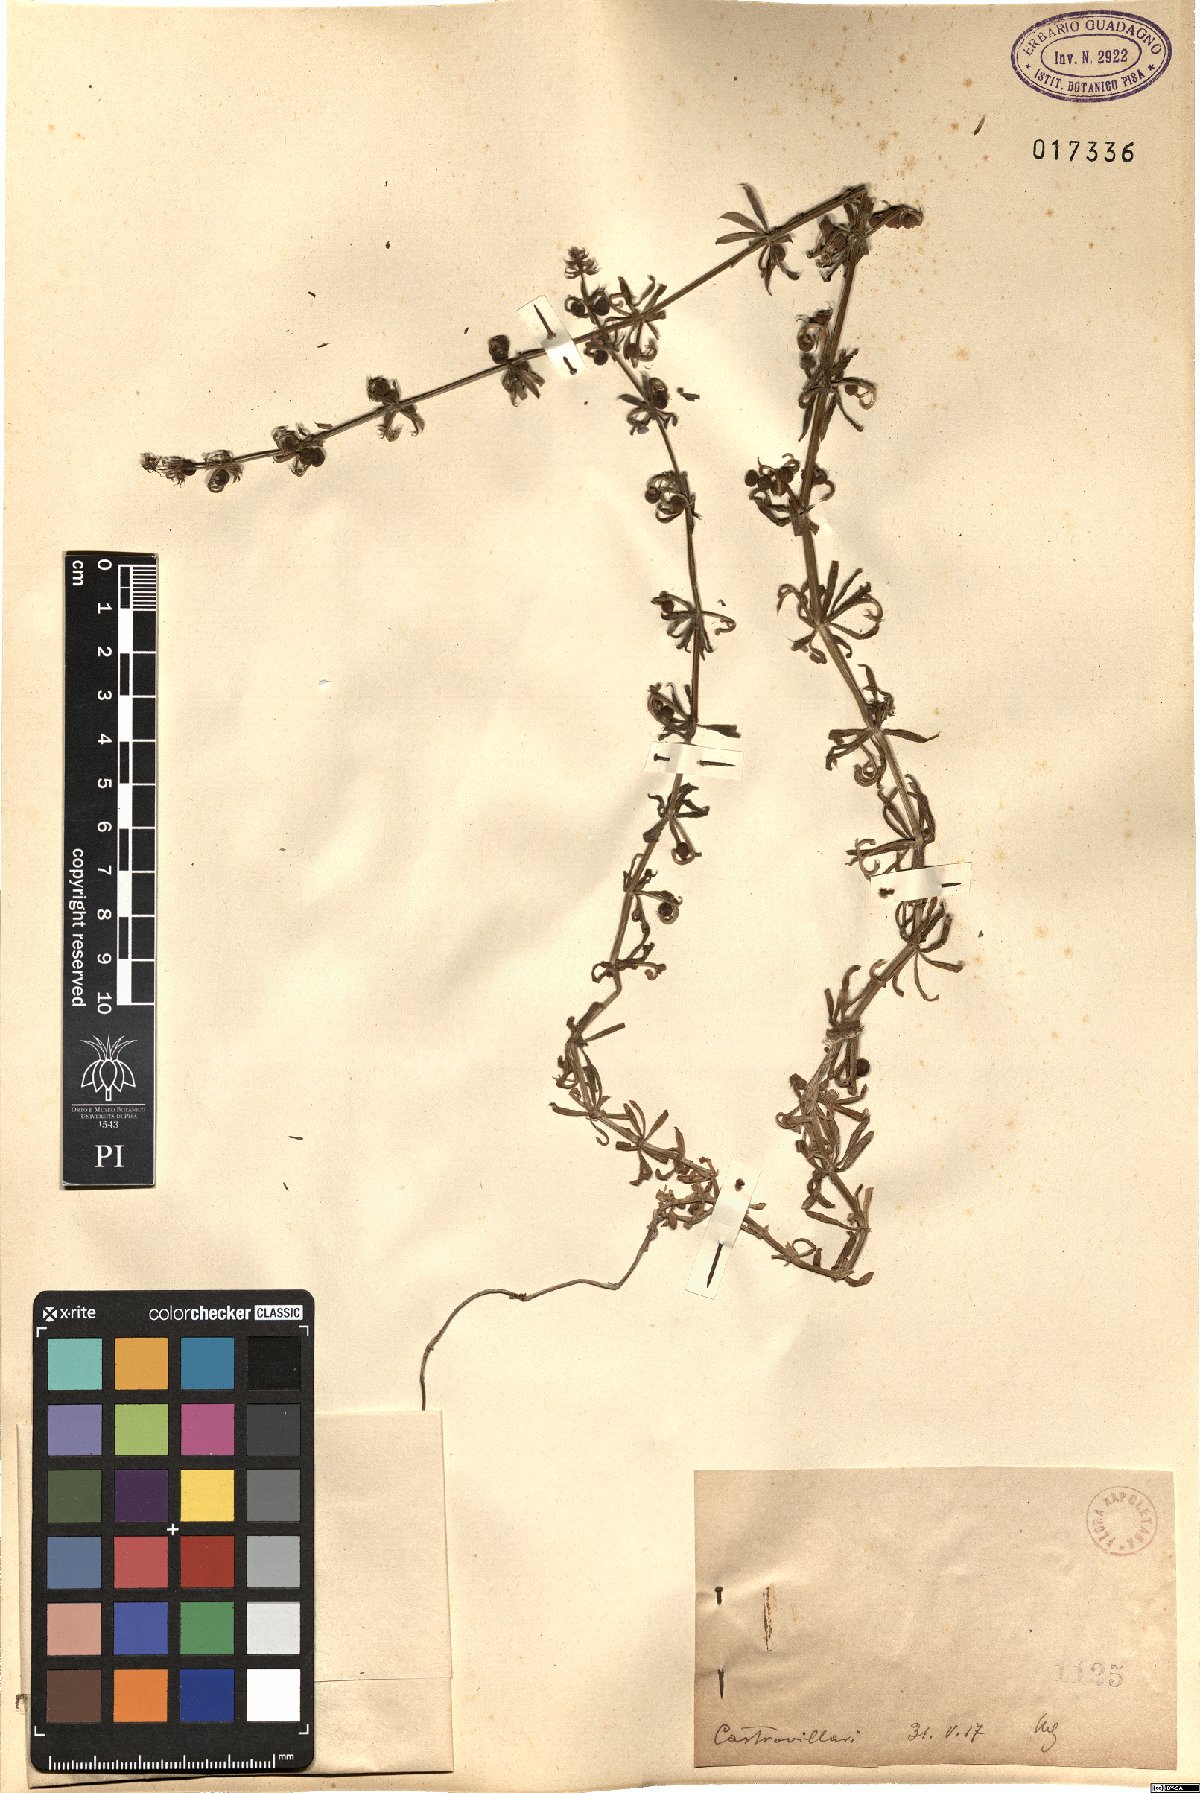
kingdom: Plantae
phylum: Tracheophyta
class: Magnoliopsida
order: Gentianales
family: Rubiaceae
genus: Galium
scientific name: Galium
